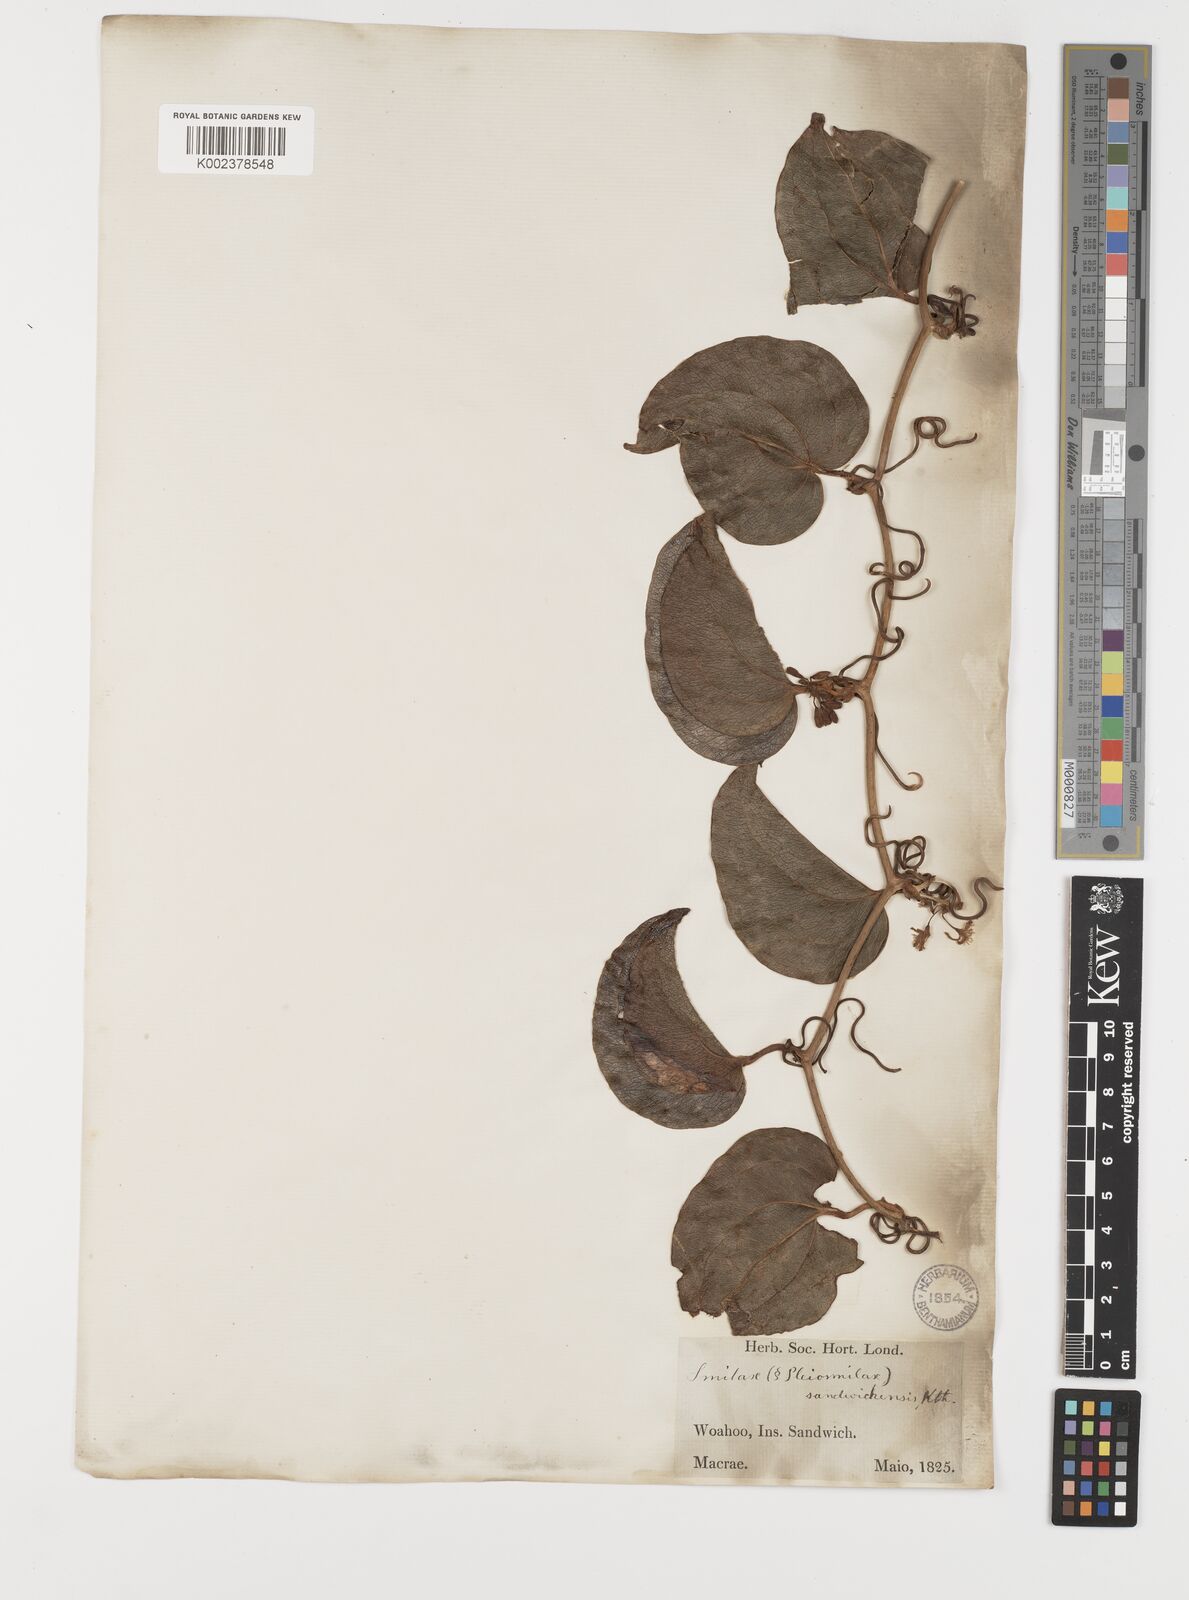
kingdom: Plantae
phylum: Tracheophyta
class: Liliopsida
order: Liliales
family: Smilacaceae
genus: Smilax
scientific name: Smilax melastomifolia
